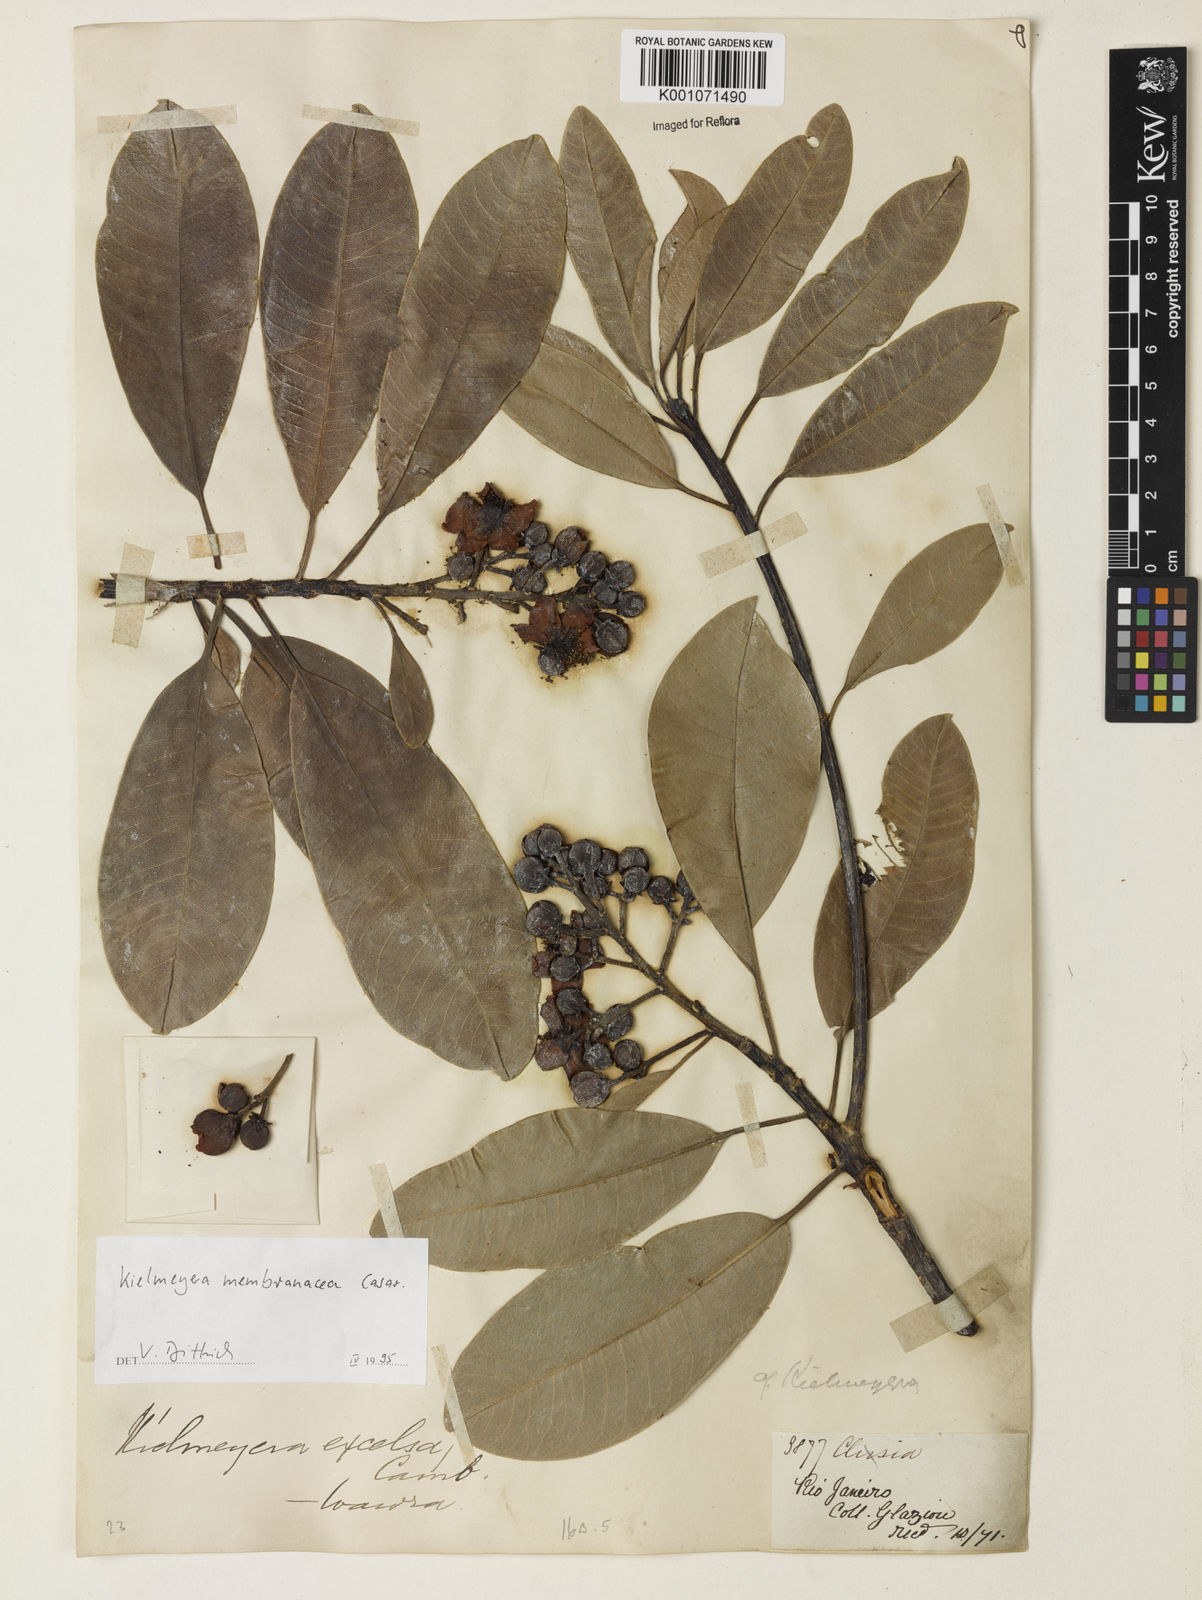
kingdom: Plantae
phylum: Tracheophyta
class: Magnoliopsida
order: Malpighiales
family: Calophyllaceae
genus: Kielmeyera
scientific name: Kielmeyera membranacea
